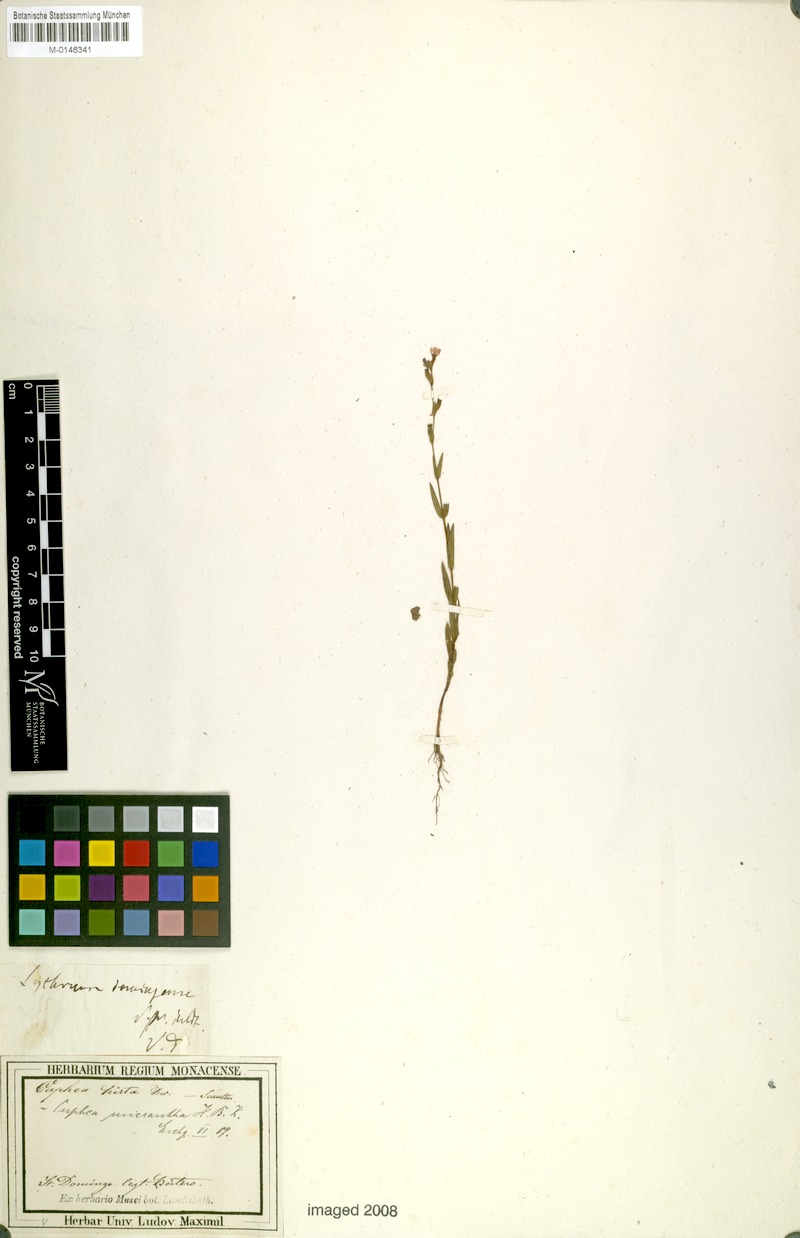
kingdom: Plantae
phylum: Tracheophyta
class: Magnoliopsida
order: Myrtales
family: Lythraceae
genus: Cuphea
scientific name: Cuphea micrantha
